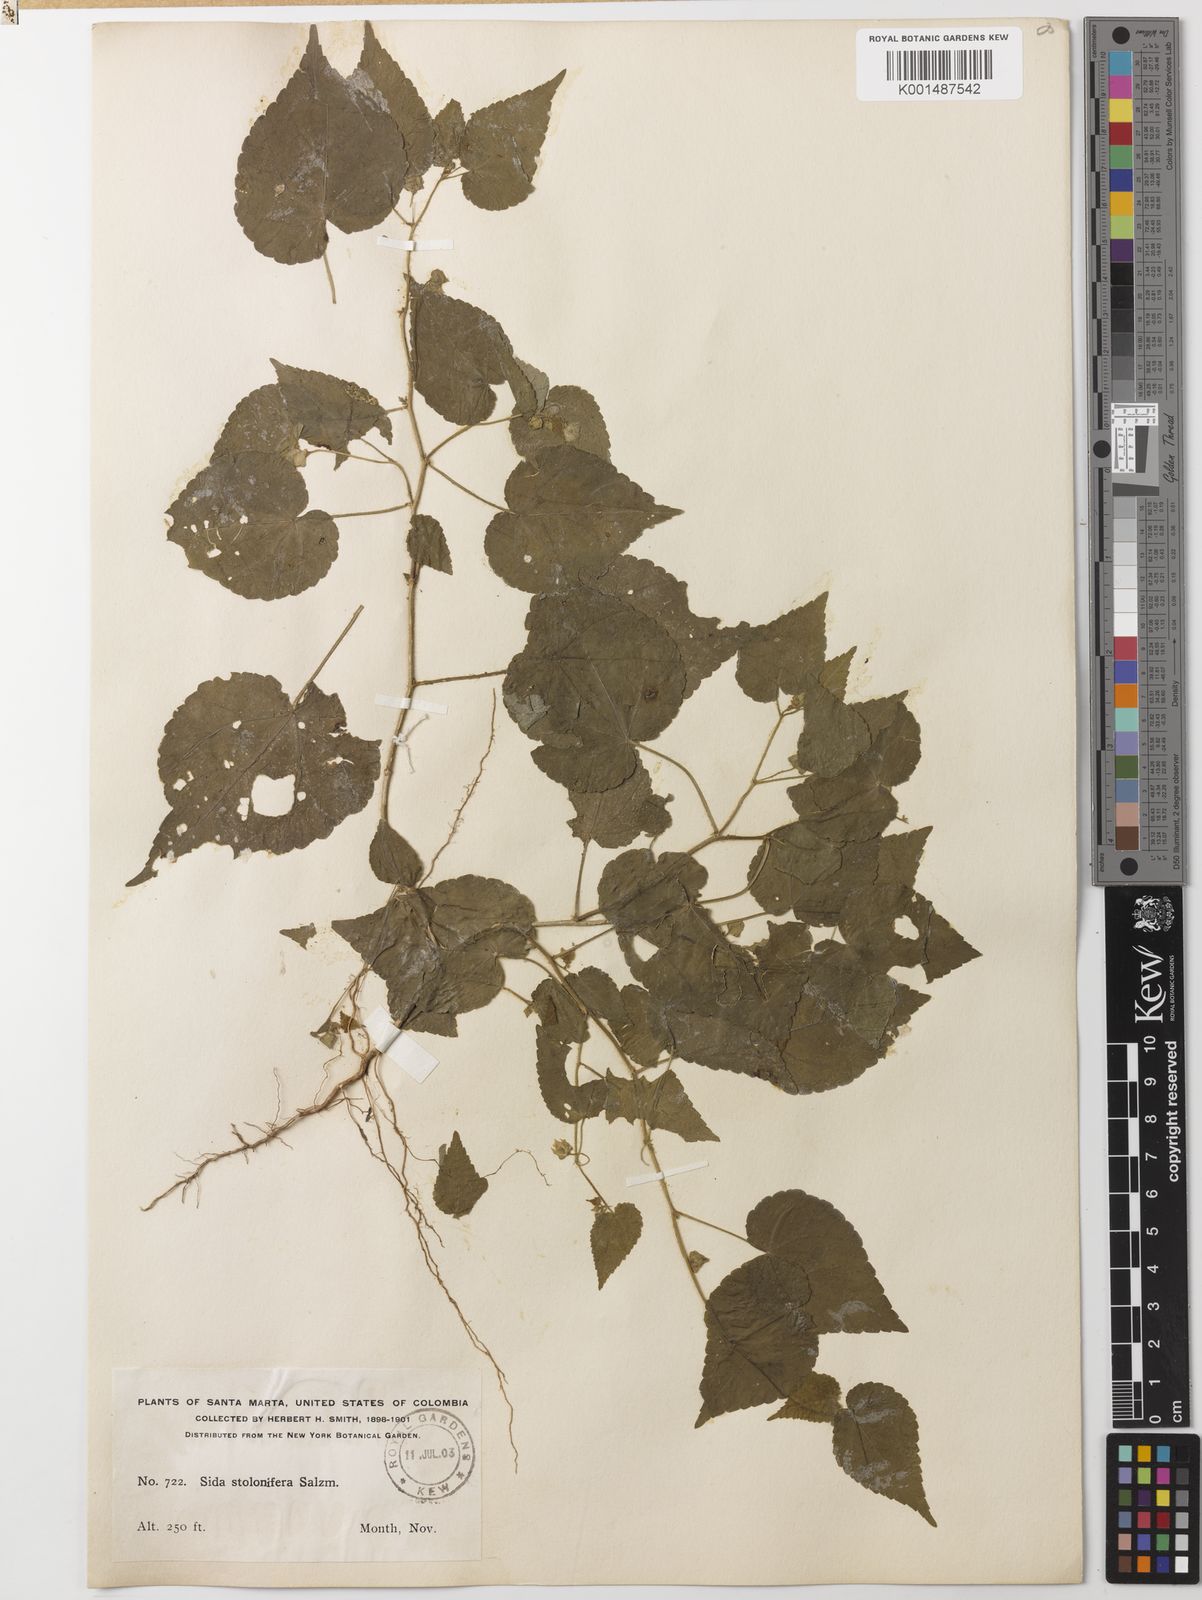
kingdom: Plantae
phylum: Tracheophyta
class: Magnoliopsida
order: Malvales
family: Malvaceae
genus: Sida
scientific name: Sida jussiaeana
